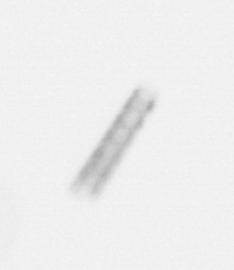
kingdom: Chromista
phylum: Ochrophyta
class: Bacillariophyceae
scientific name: Bacillariophyceae
